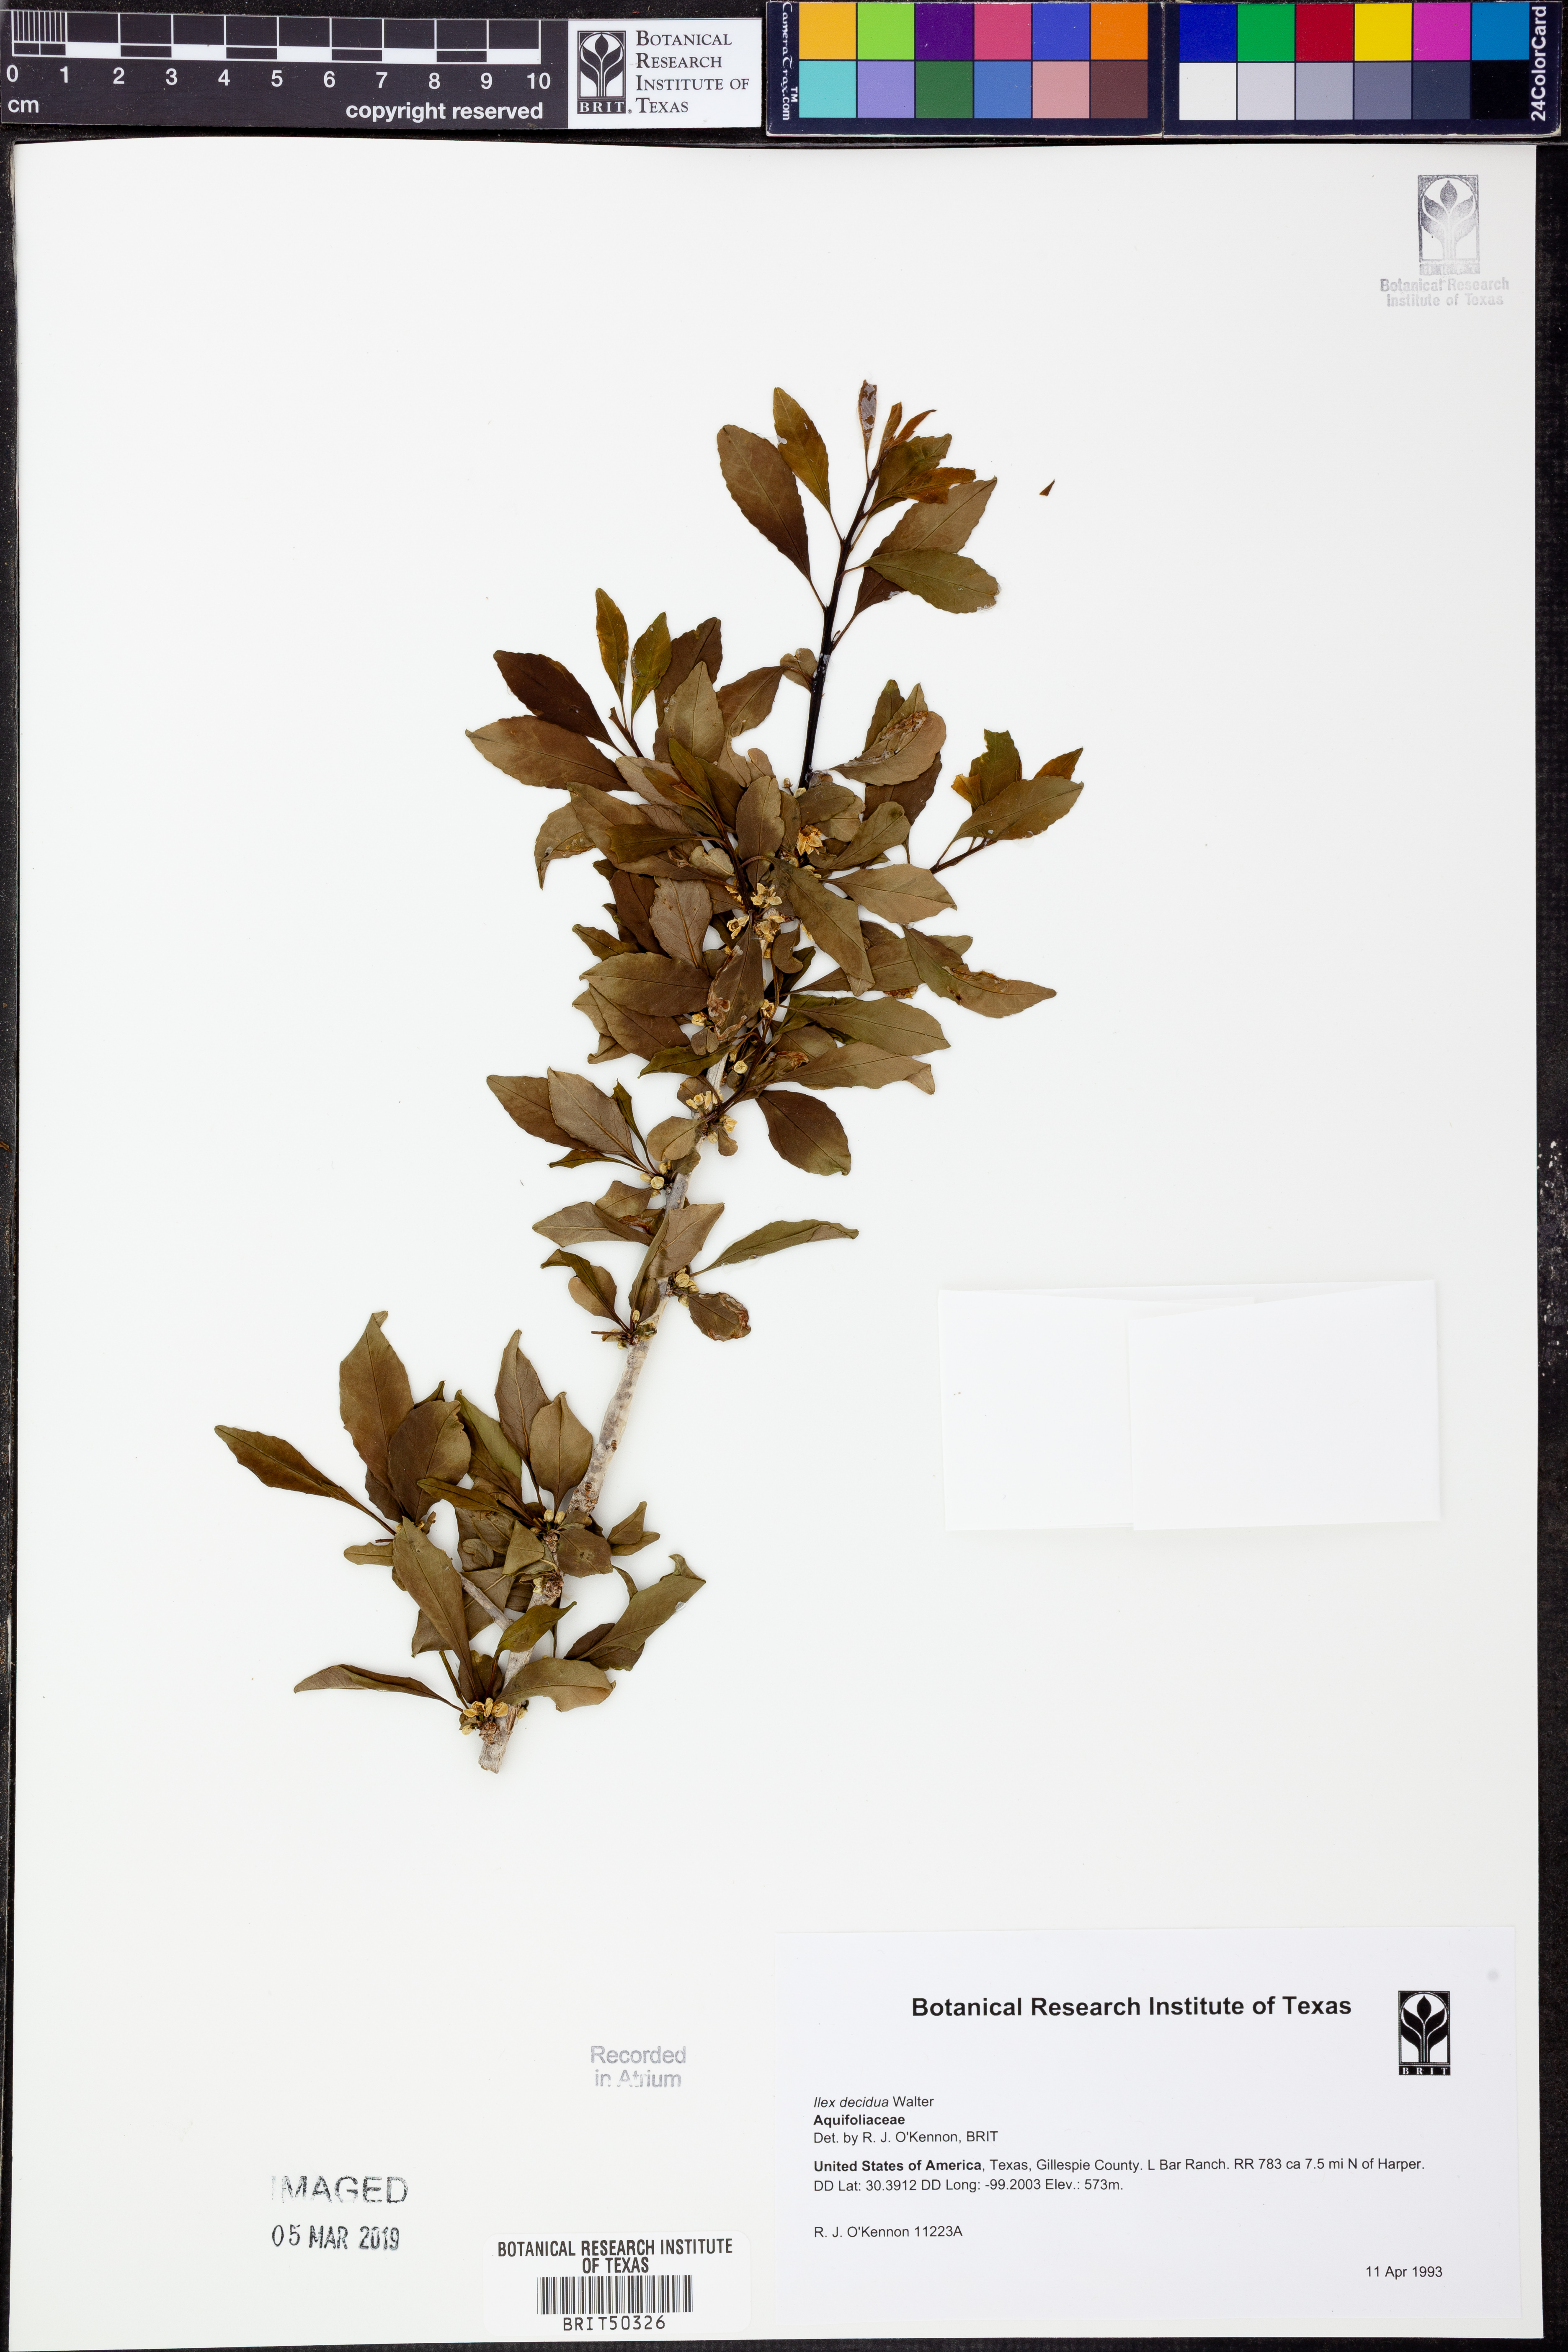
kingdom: Plantae
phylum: Tracheophyta
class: Magnoliopsida
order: Aquifoliales
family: Aquifoliaceae
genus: Ilex
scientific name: Ilex decidua
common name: Possum-haw
